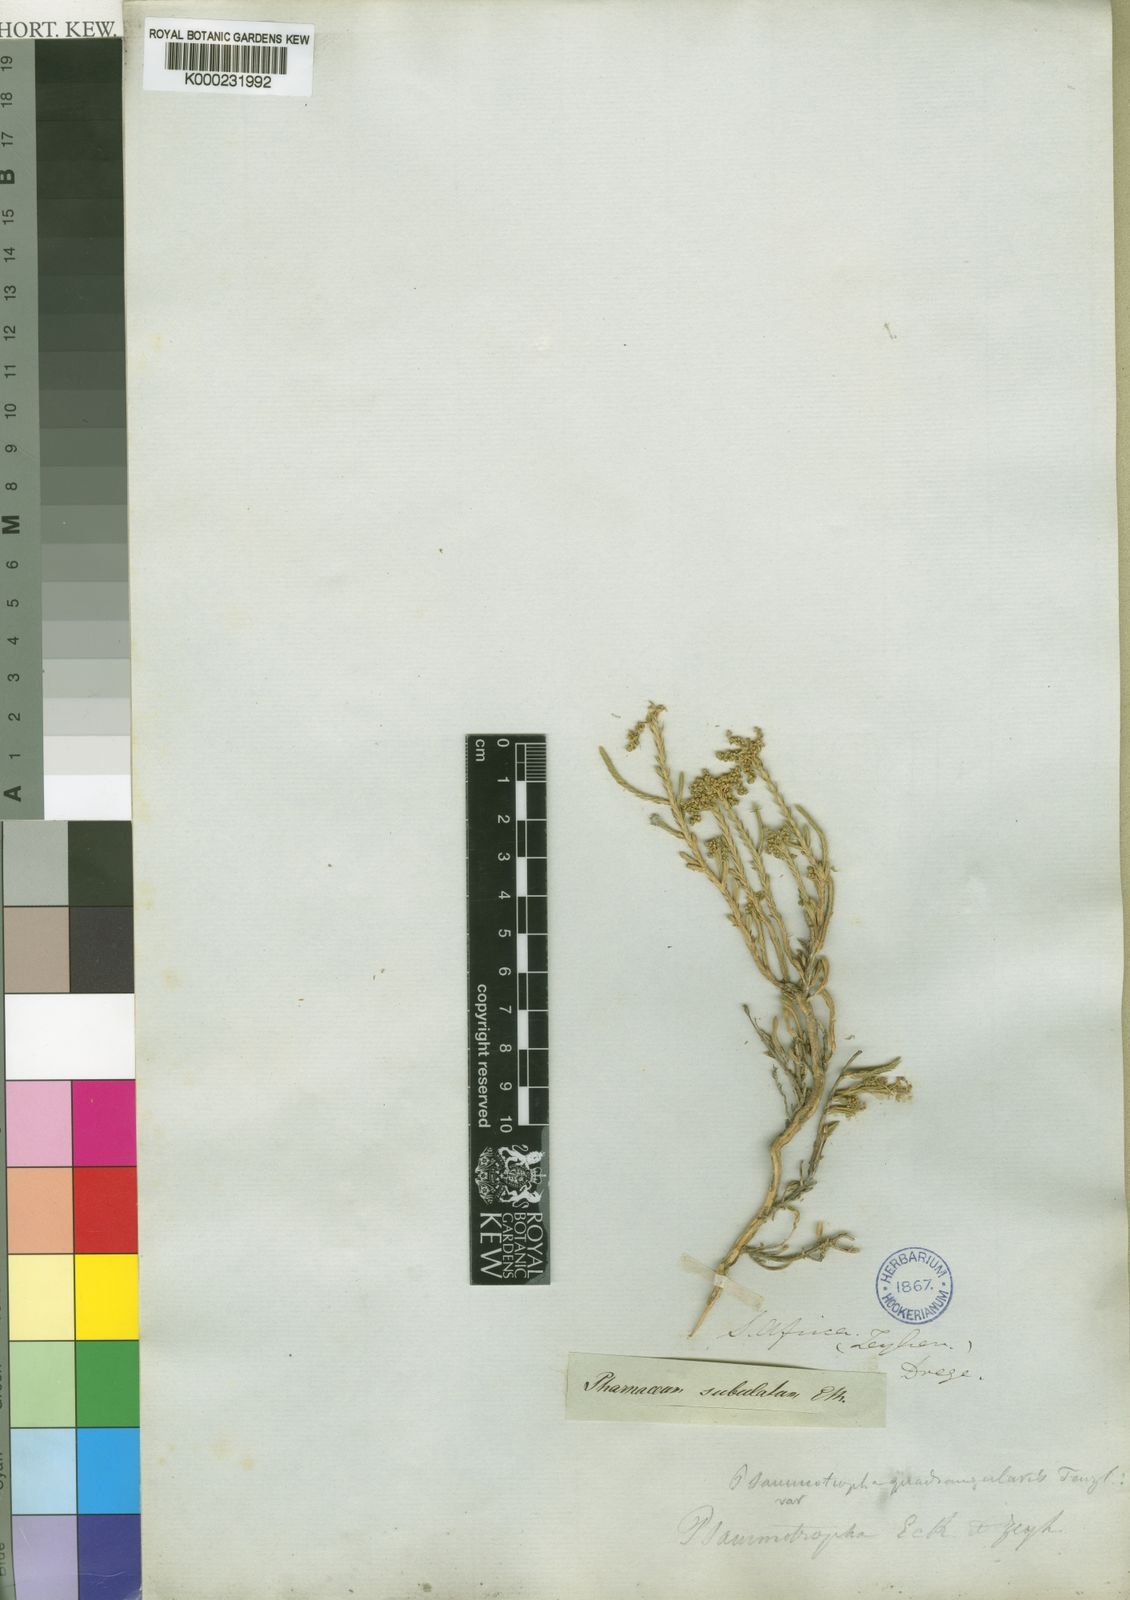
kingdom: Plantae
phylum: Tracheophyta
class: Magnoliopsida
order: Caryophyllales
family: Molluginaceae
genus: Psammotropha
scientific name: Psammotropha quadrangularis
